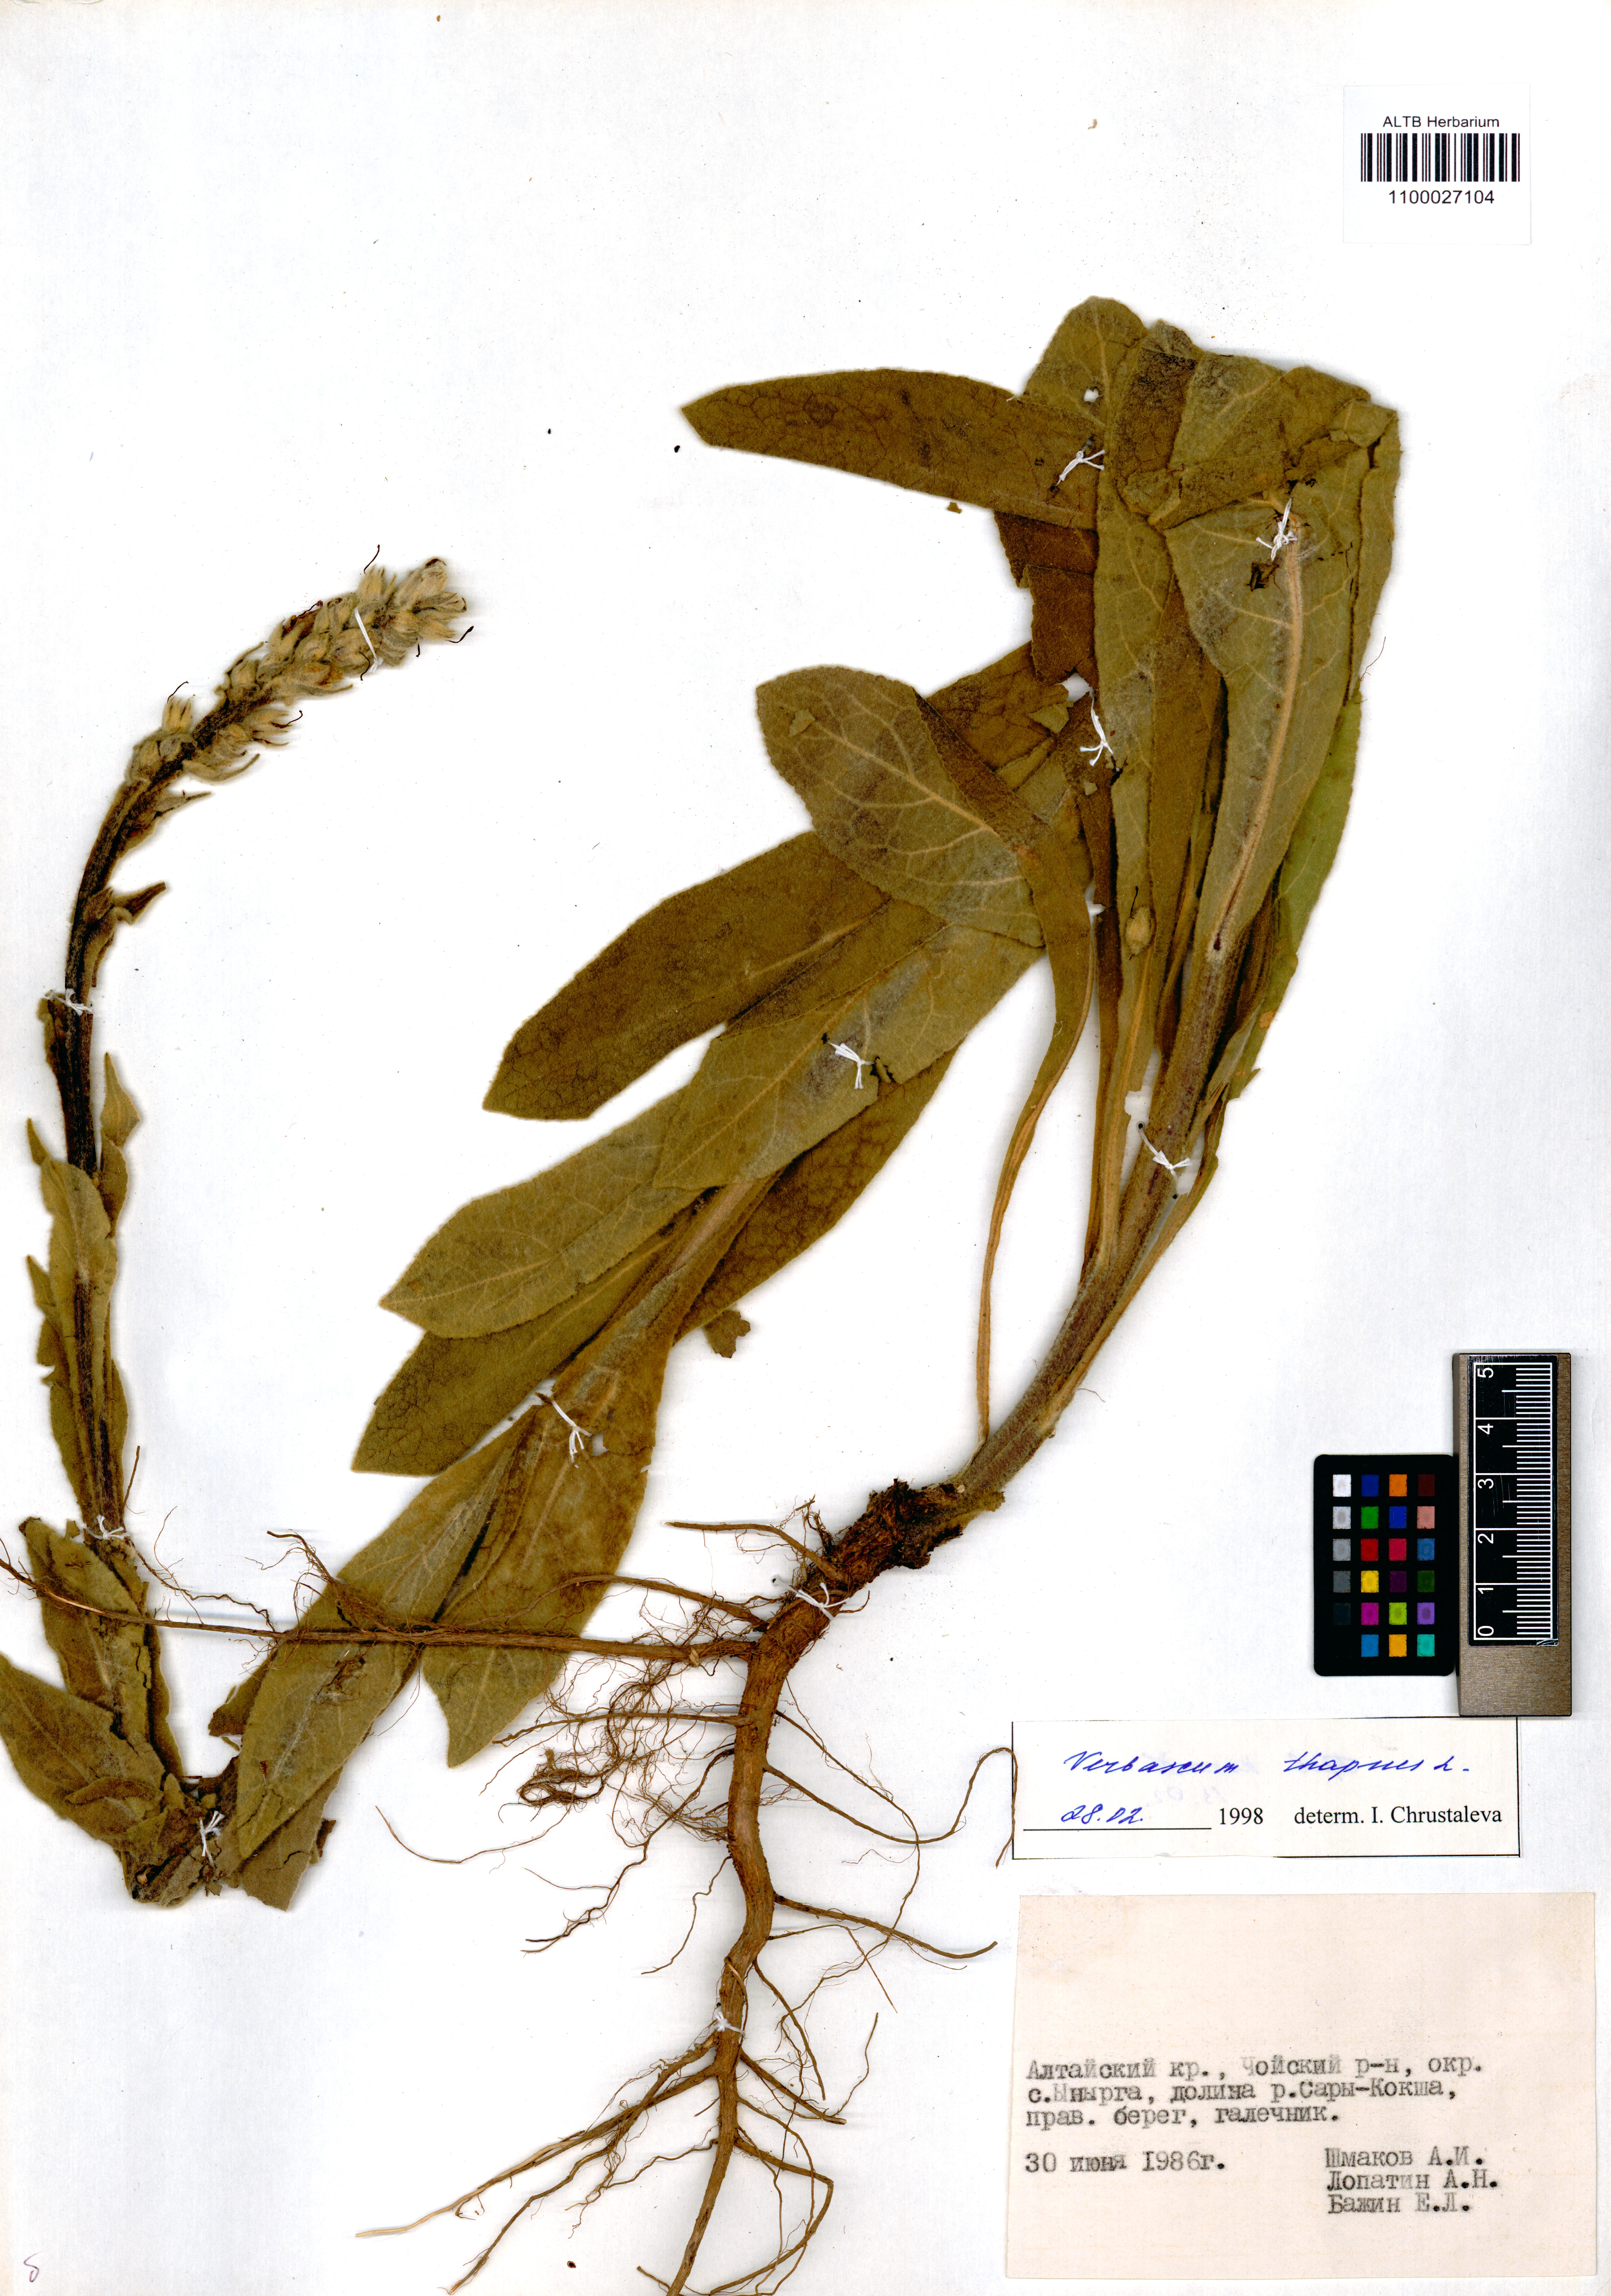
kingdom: Plantae
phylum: Tracheophyta
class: Magnoliopsida
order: Lamiales
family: Scrophulariaceae
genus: Verbascum
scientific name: Verbascum thapsus
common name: Common mullein
